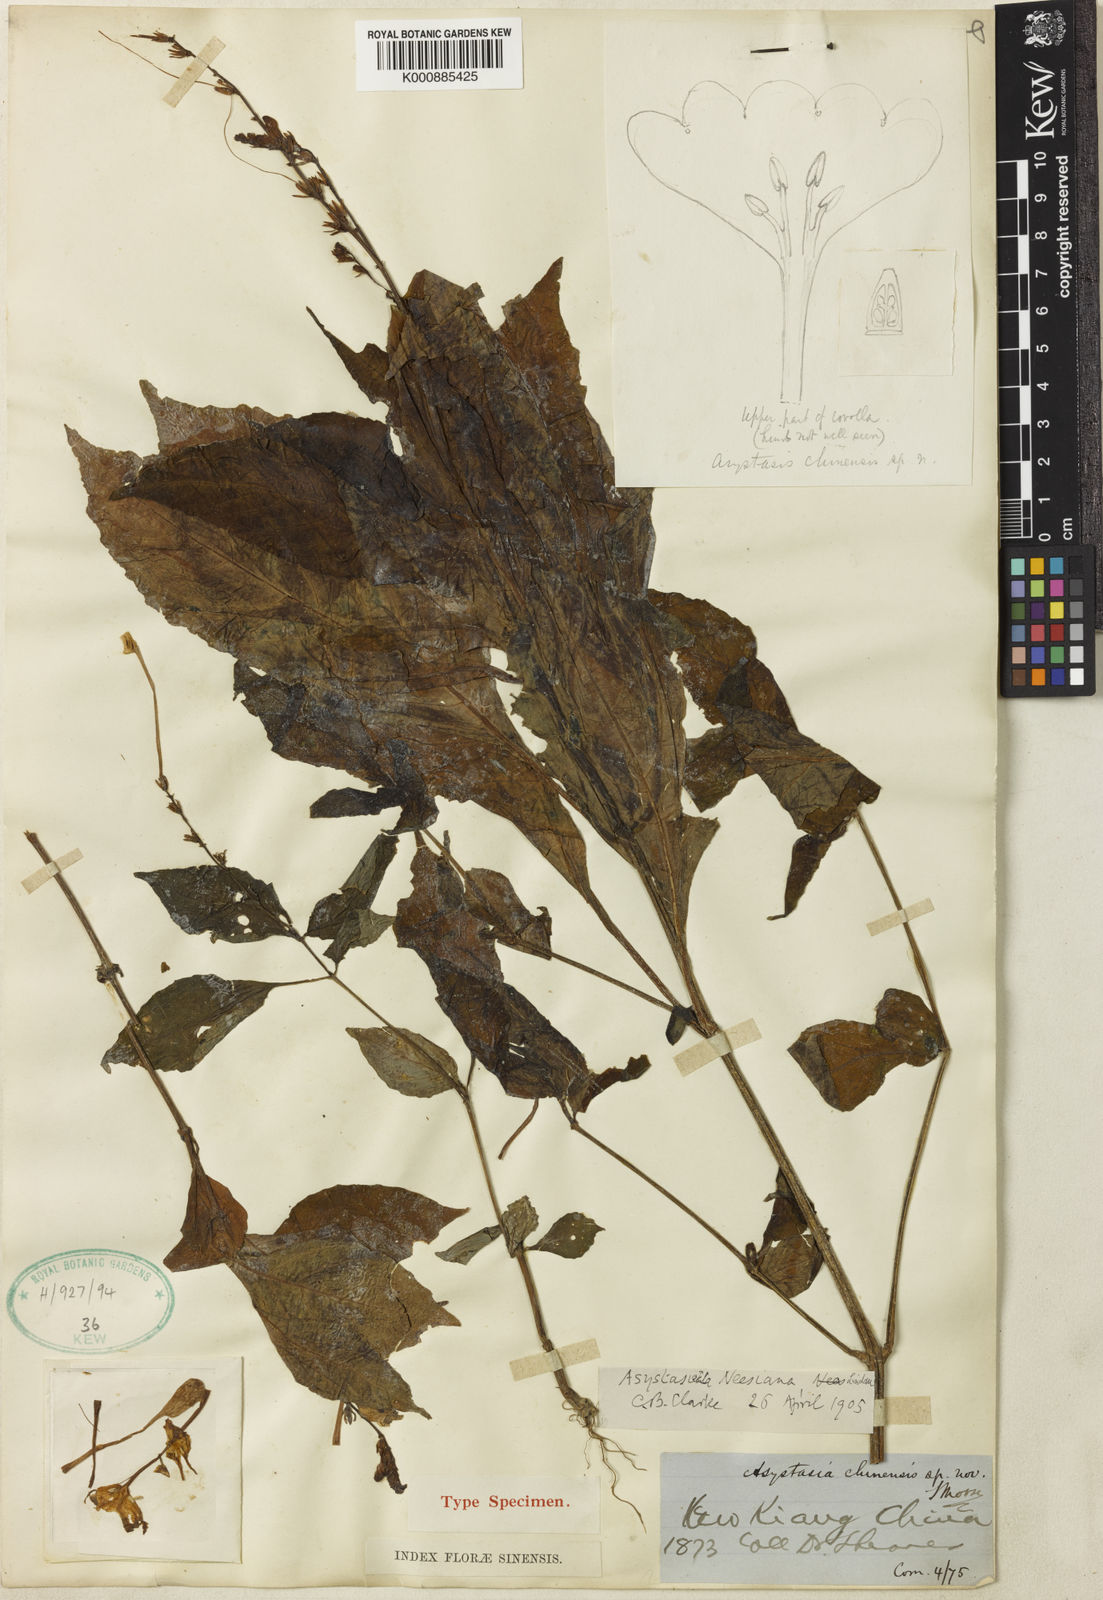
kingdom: Plantae
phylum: Tracheophyta
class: Magnoliopsida
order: Lamiales
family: Acanthaceae
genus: Mackaya
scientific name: Mackaya neesiana
